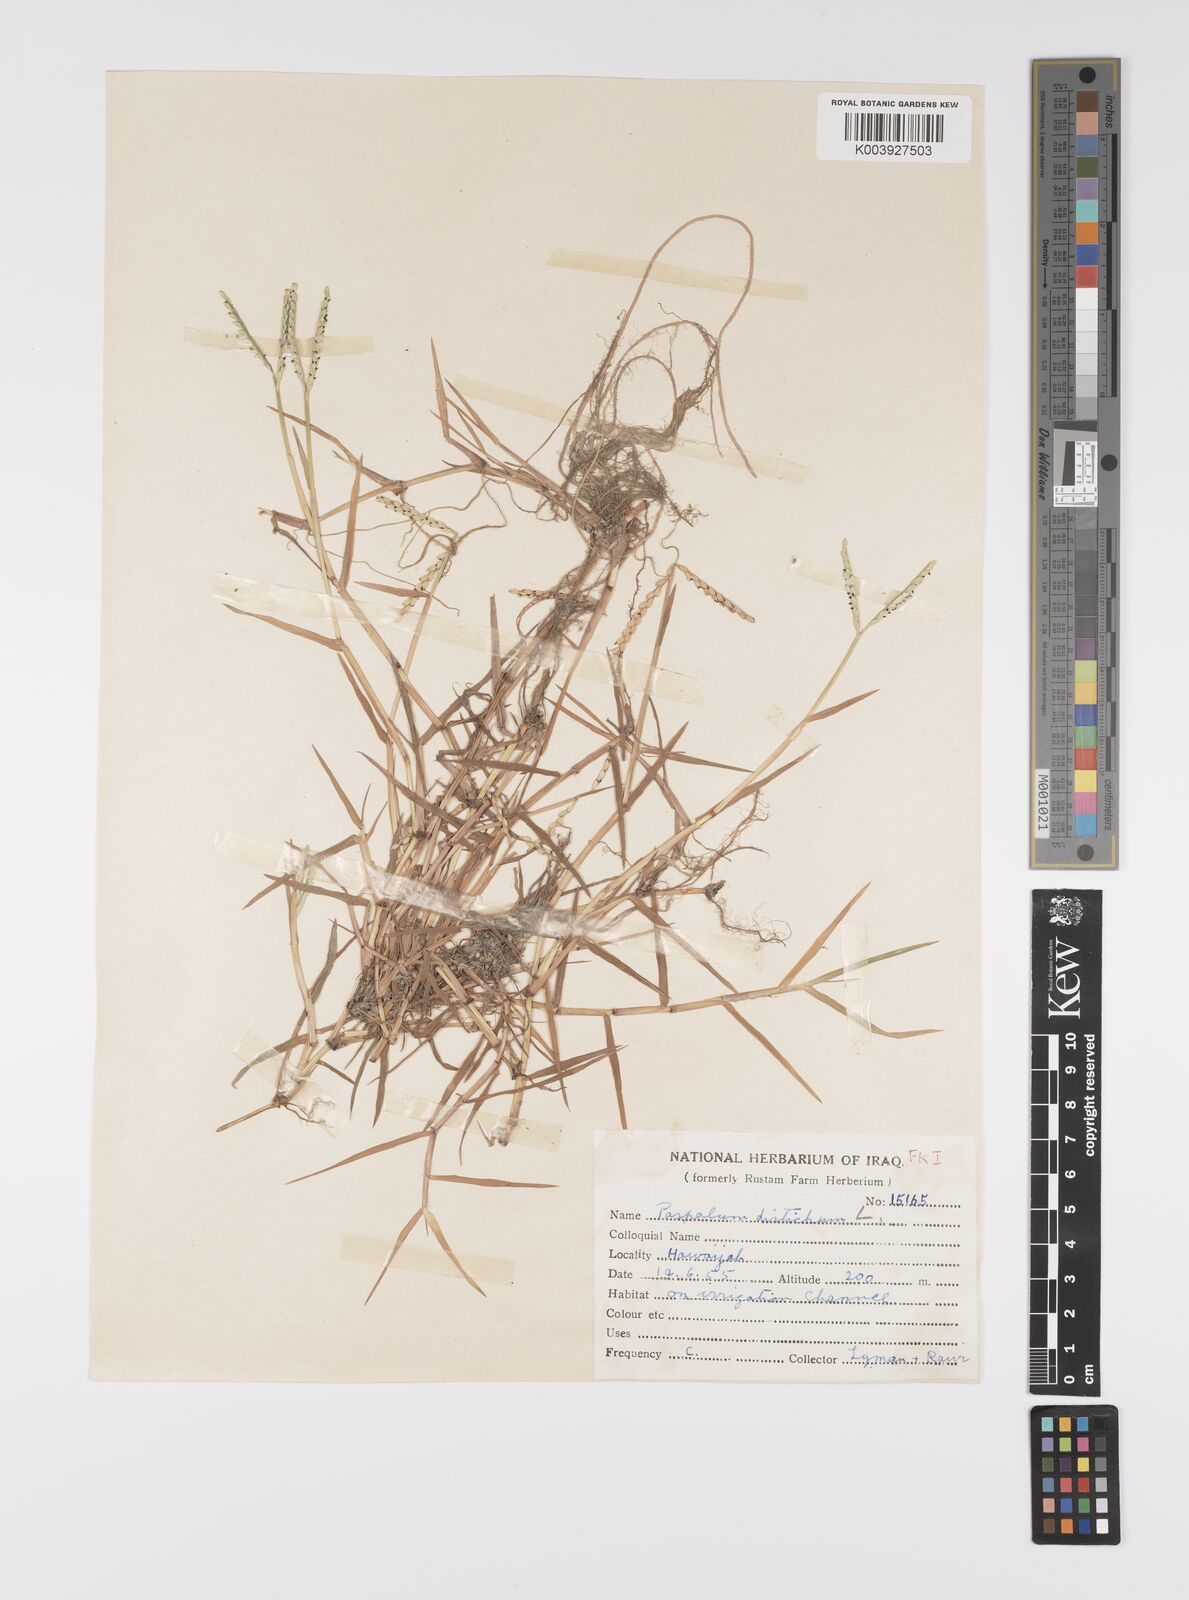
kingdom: Plantae
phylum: Tracheophyta
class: Liliopsida
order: Poales
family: Poaceae
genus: Paspalum
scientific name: Paspalum distichum
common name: Knotgrass
